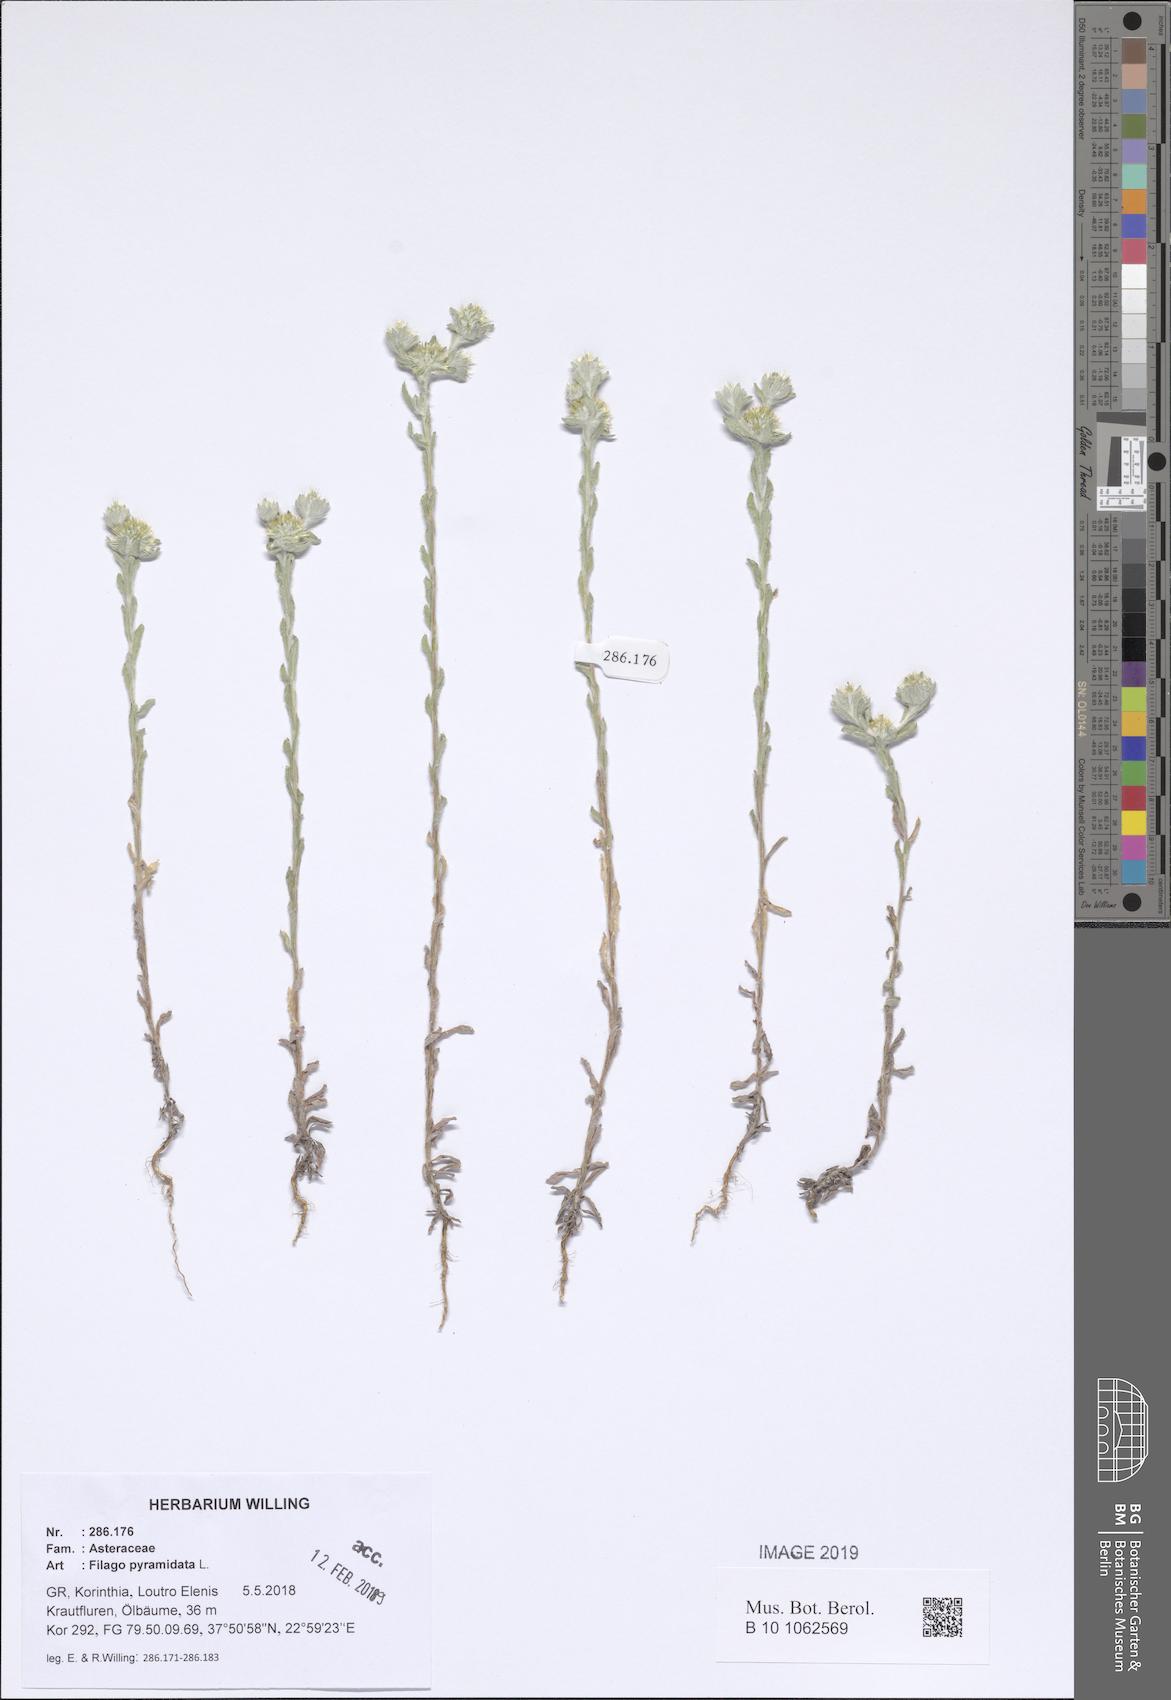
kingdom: Plantae
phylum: Tracheophyta
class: Magnoliopsida
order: Asterales
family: Asteraceae
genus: Filago
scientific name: Filago pyramidata
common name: Broad-leaved cudweed
